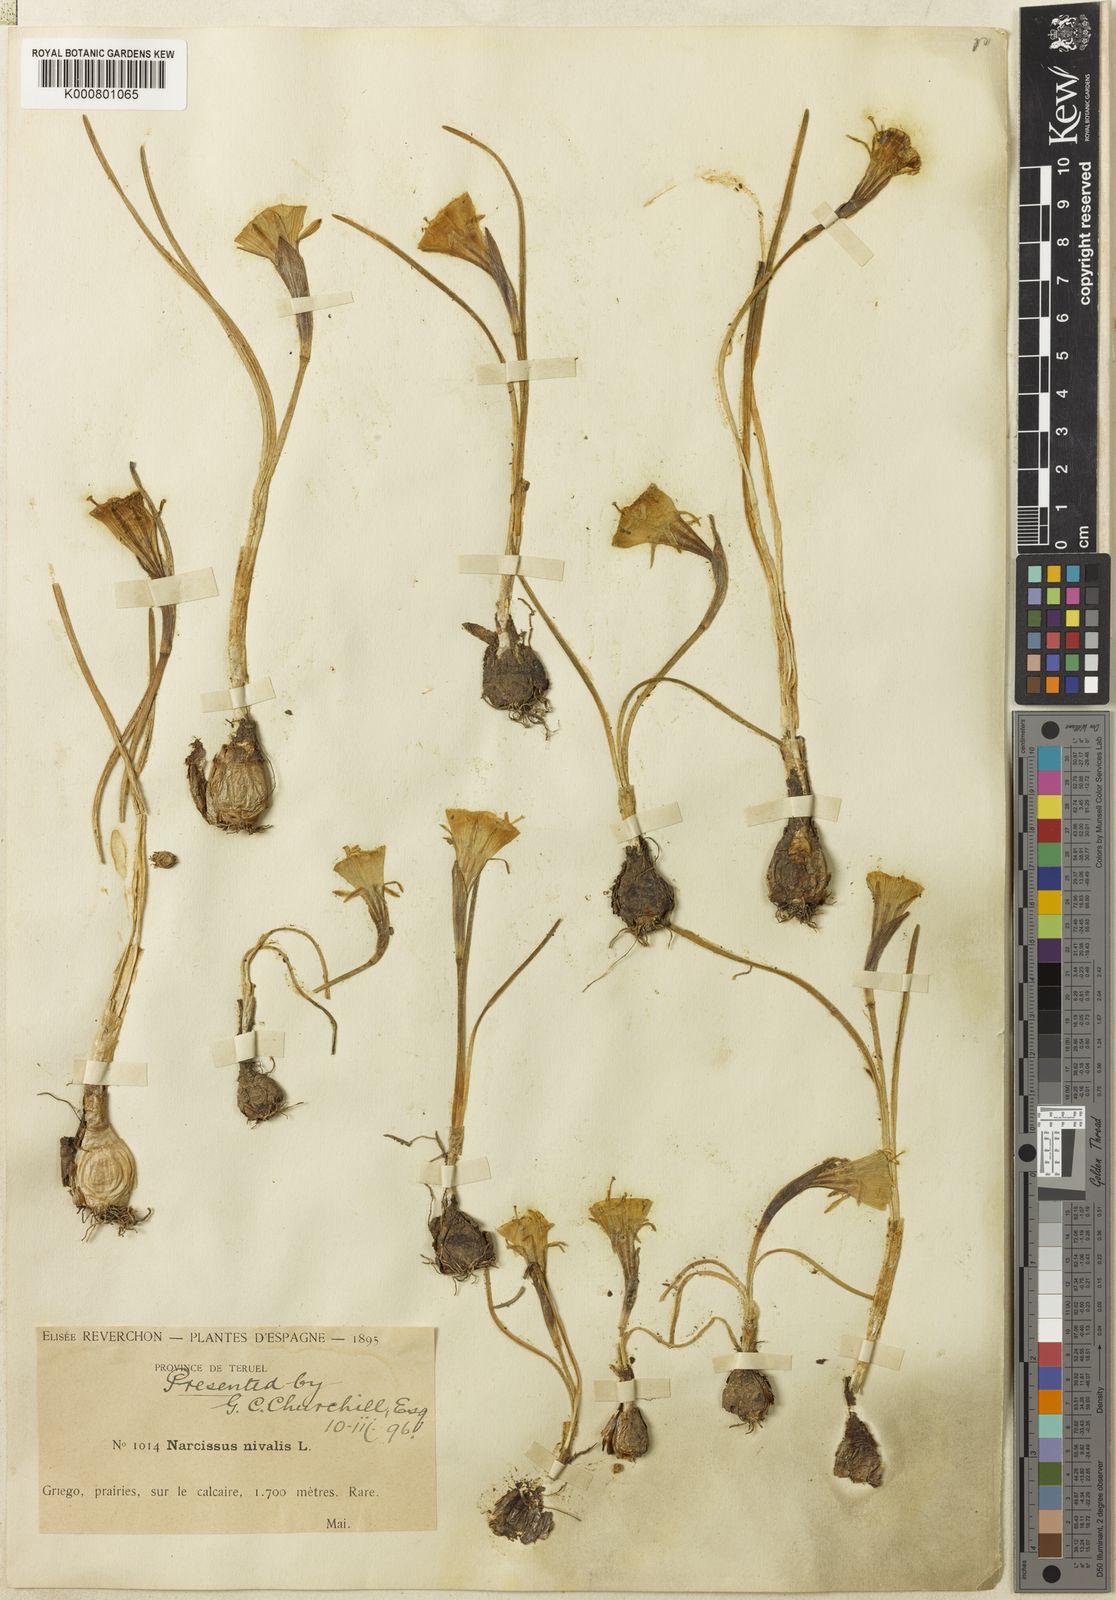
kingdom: Plantae
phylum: Tracheophyta
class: Liliopsida
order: Asparagales
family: Amaryllidaceae
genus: Narcissus
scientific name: Narcissus bulbocodium
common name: Hoop-petticoat daffodil
